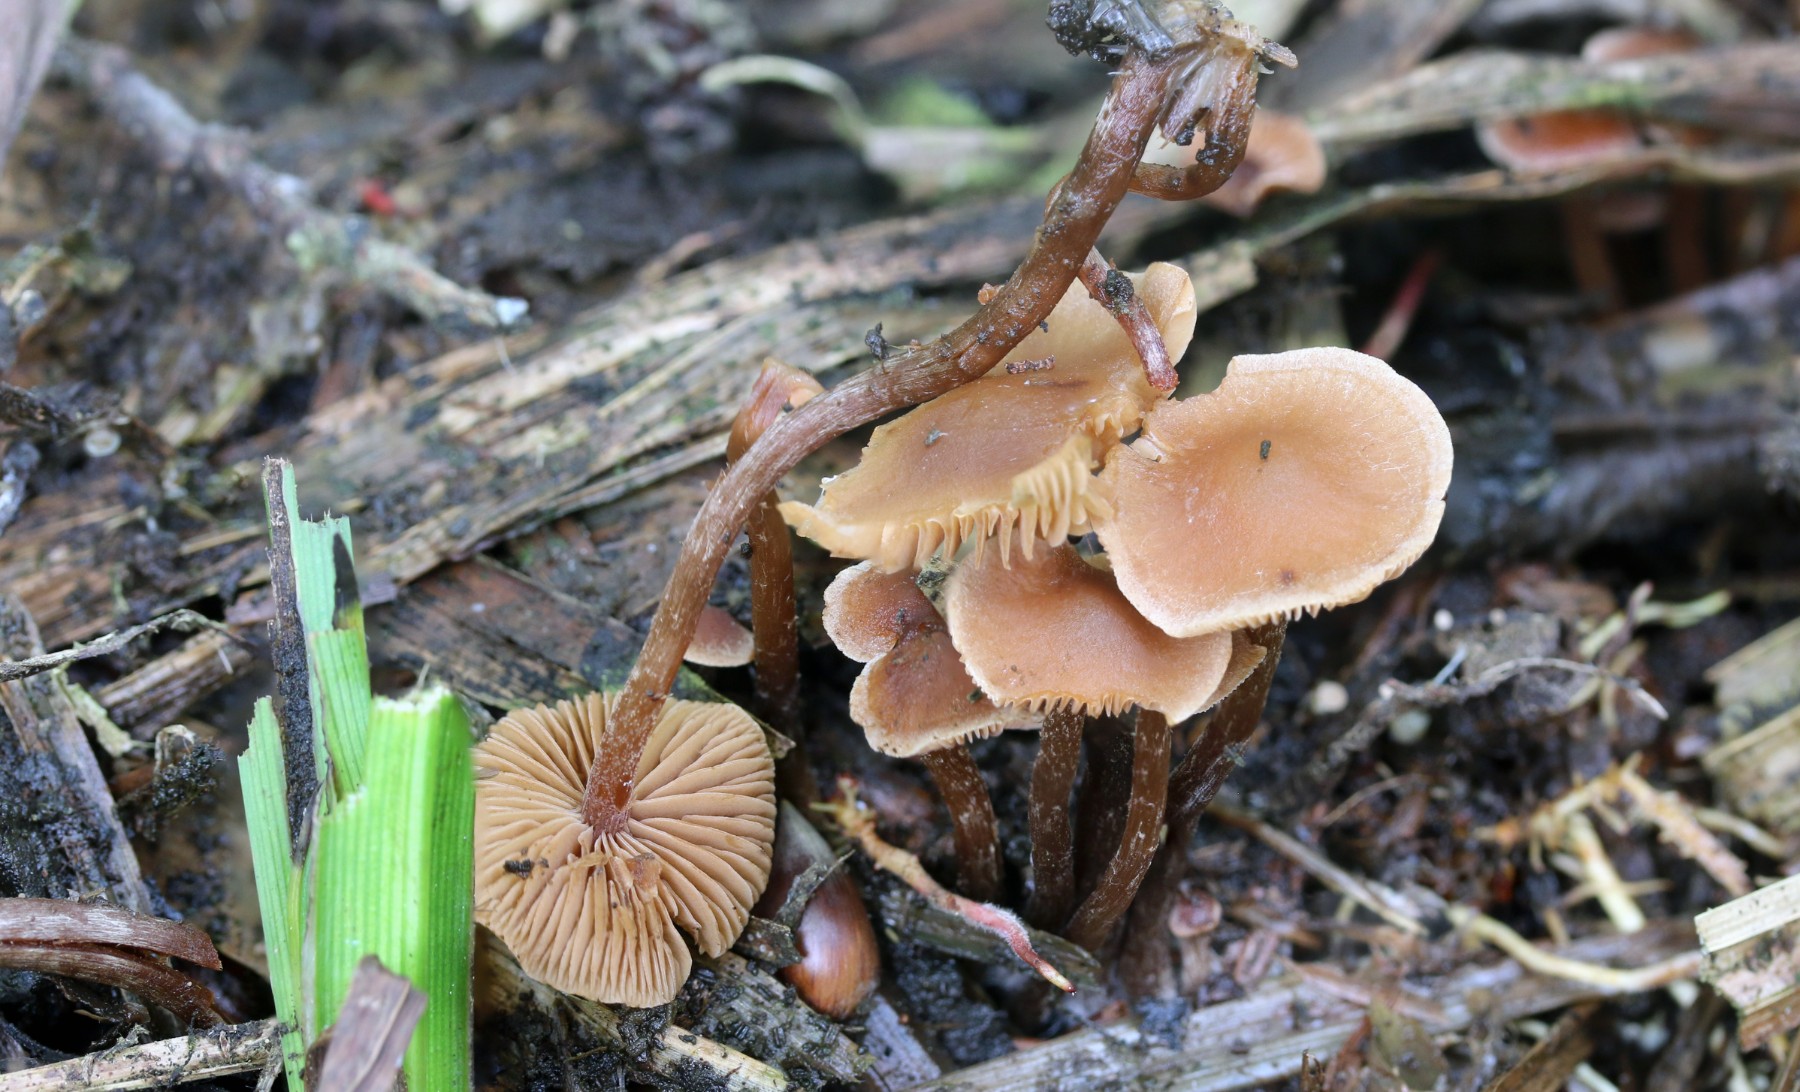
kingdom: Fungi
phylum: Basidiomycota
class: Agaricomycetes
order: Agaricales
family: Hymenogastraceae
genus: Naucoria
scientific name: Naucoria escharioides
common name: lys elle-knaphat
